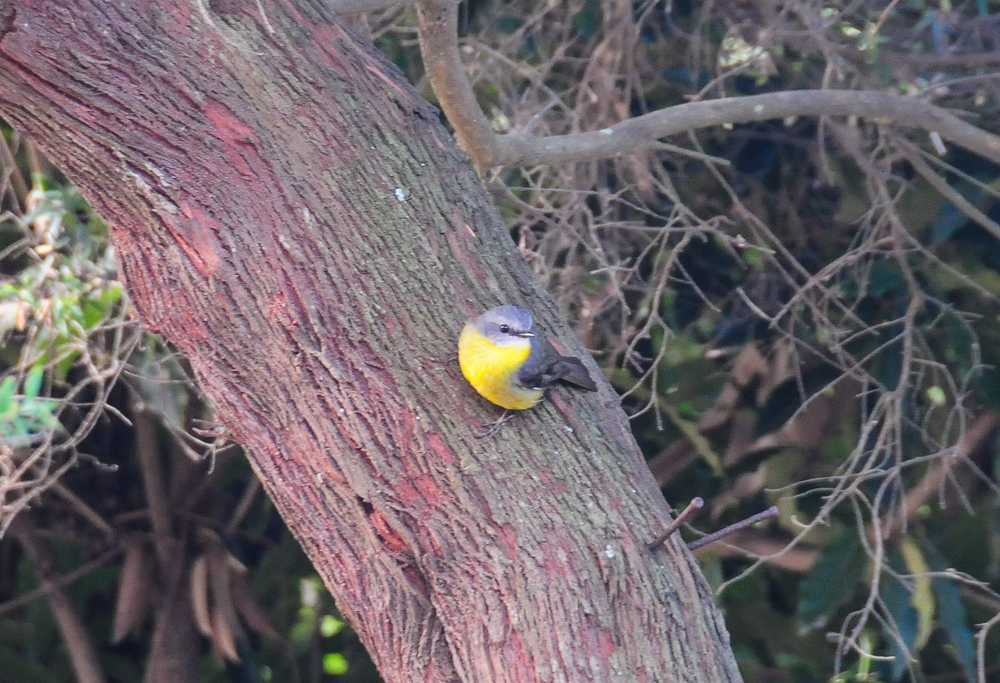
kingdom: Animalia
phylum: Chordata
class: Aves
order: Passeriformes
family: Petroicidae
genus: Eopsaltria
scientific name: Eopsaltria australis
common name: Eastern yellow robin
